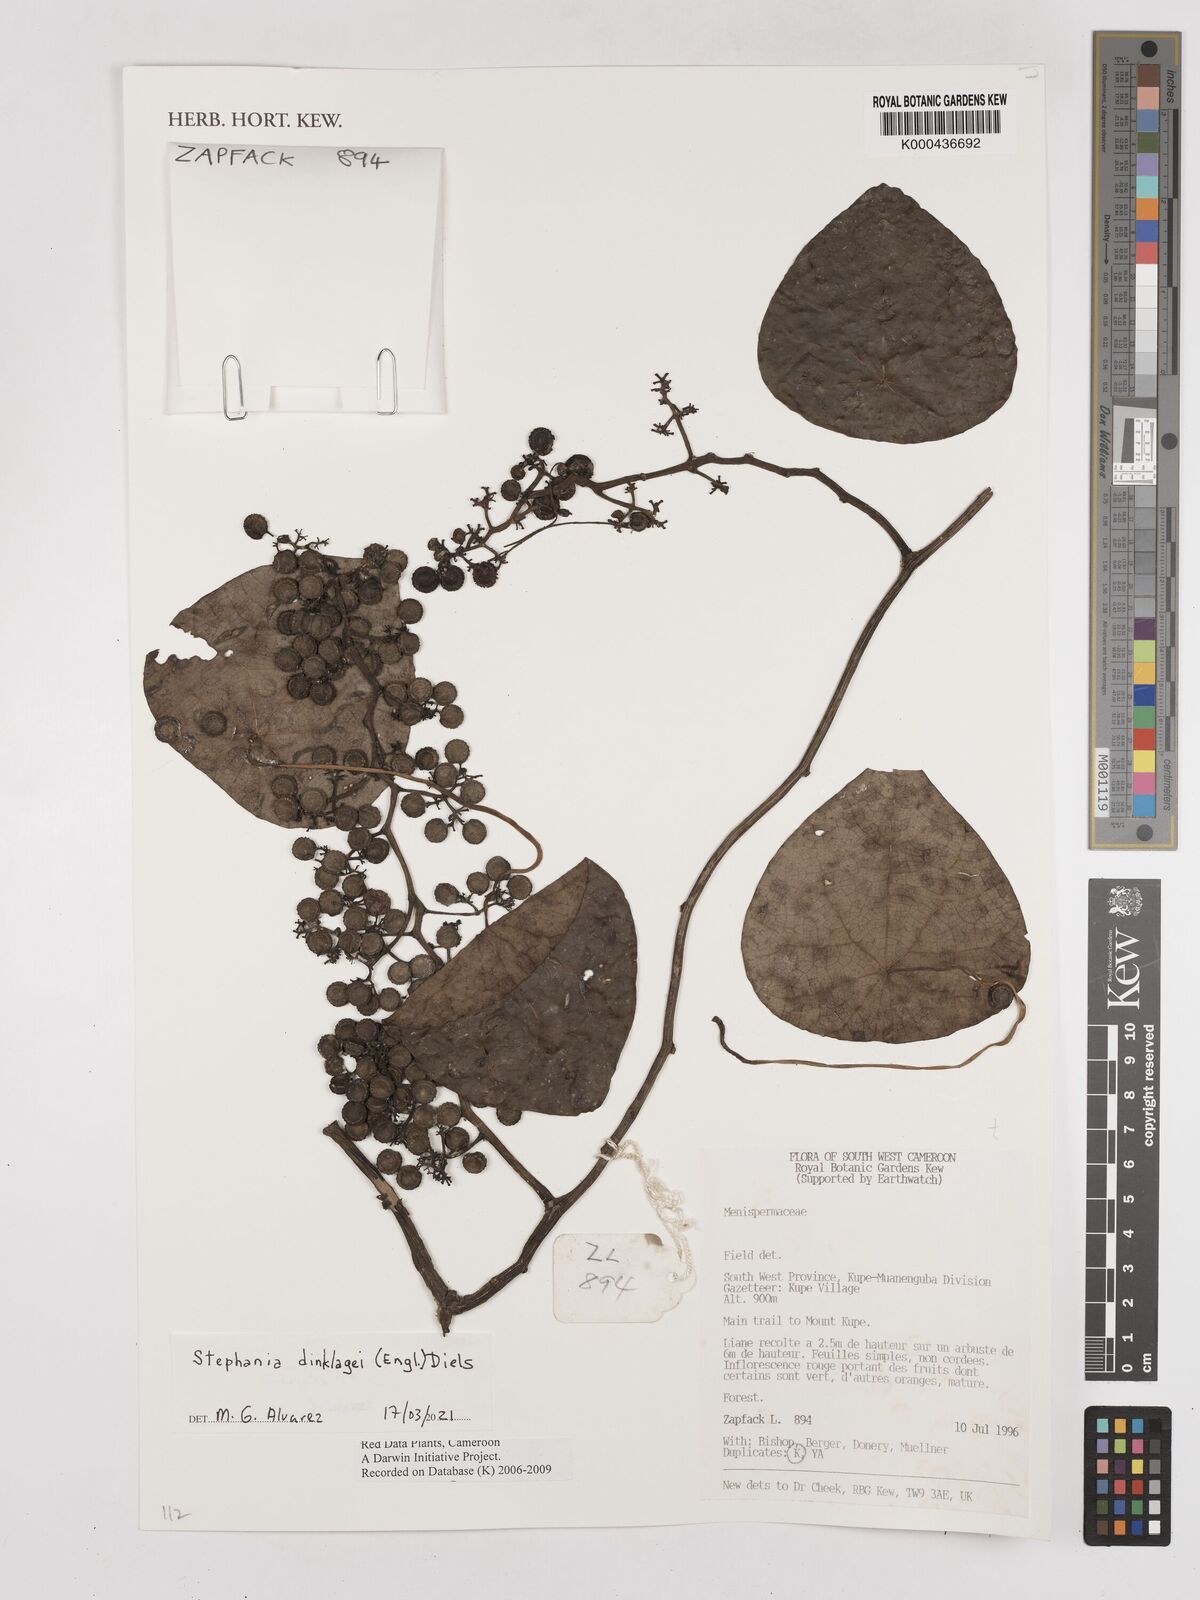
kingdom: Plantae
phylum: Tracheophyta
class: Magnoliopsida
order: Ranunculales
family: Menispermaceae
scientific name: Menispermaceae
